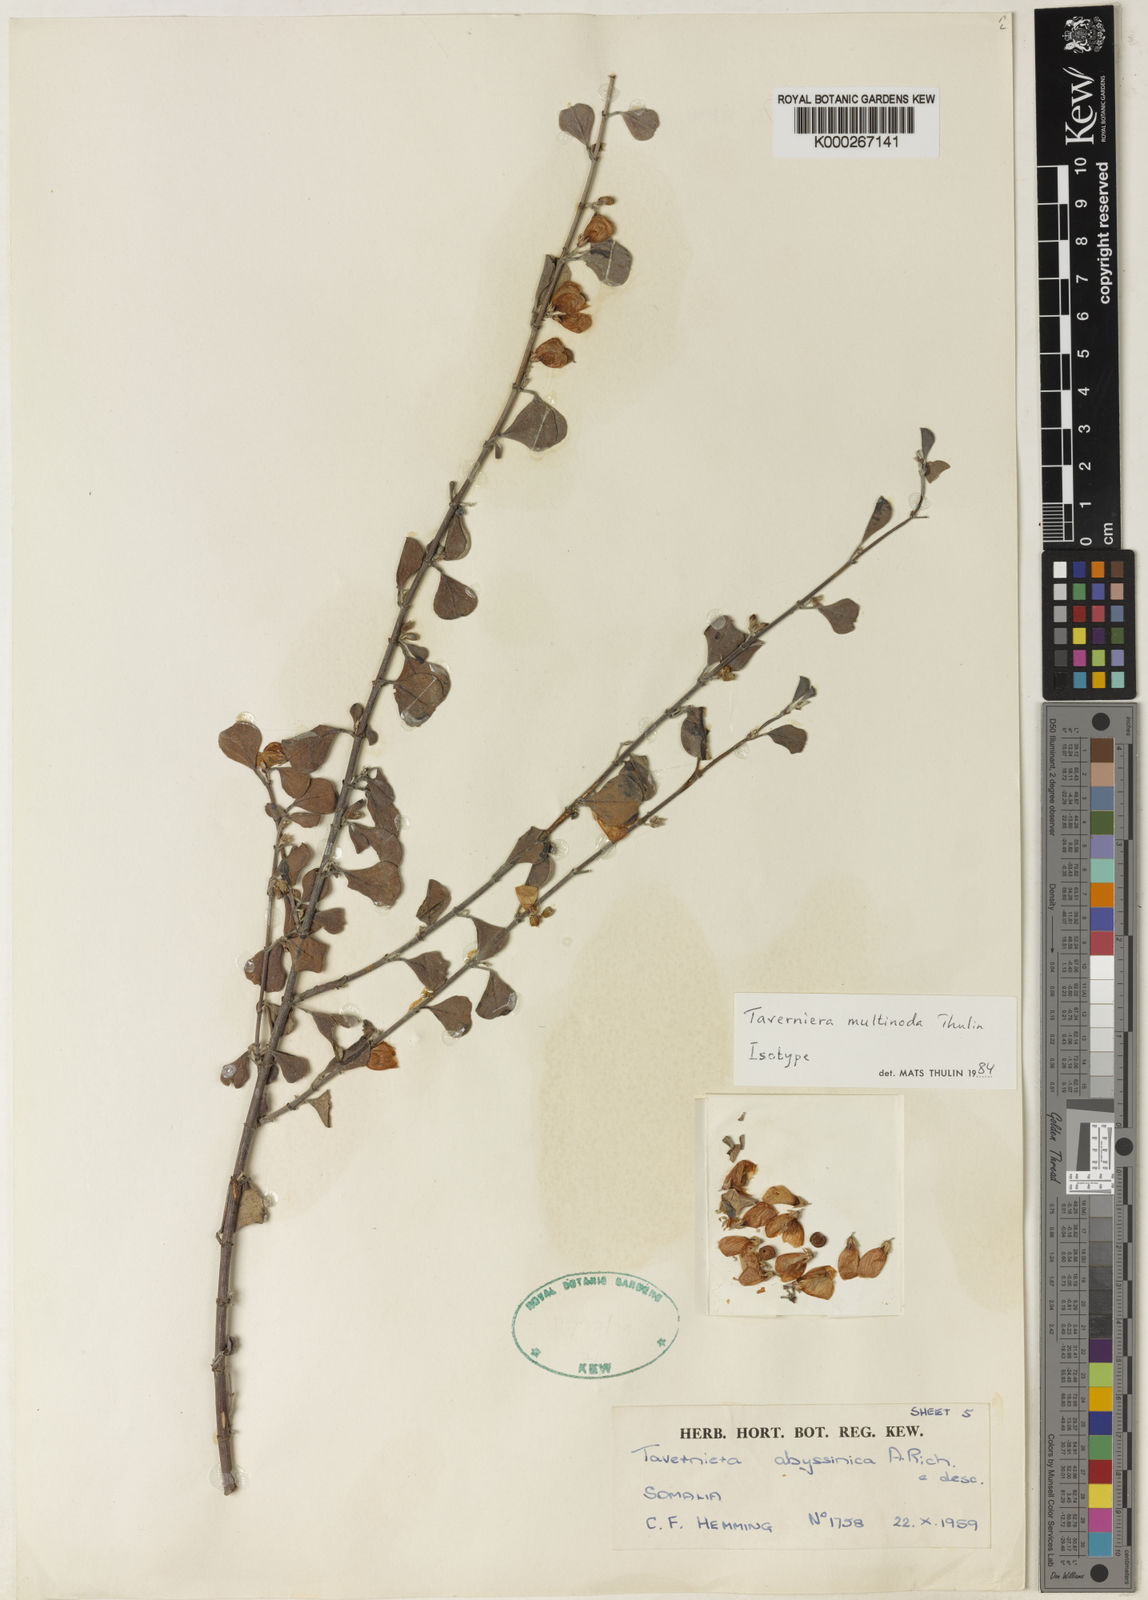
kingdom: Plantae
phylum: Tracheophyta
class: Magnoliopsida
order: Fabales
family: Fabaceae
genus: Taverniera
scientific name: Taverniera multinoda
